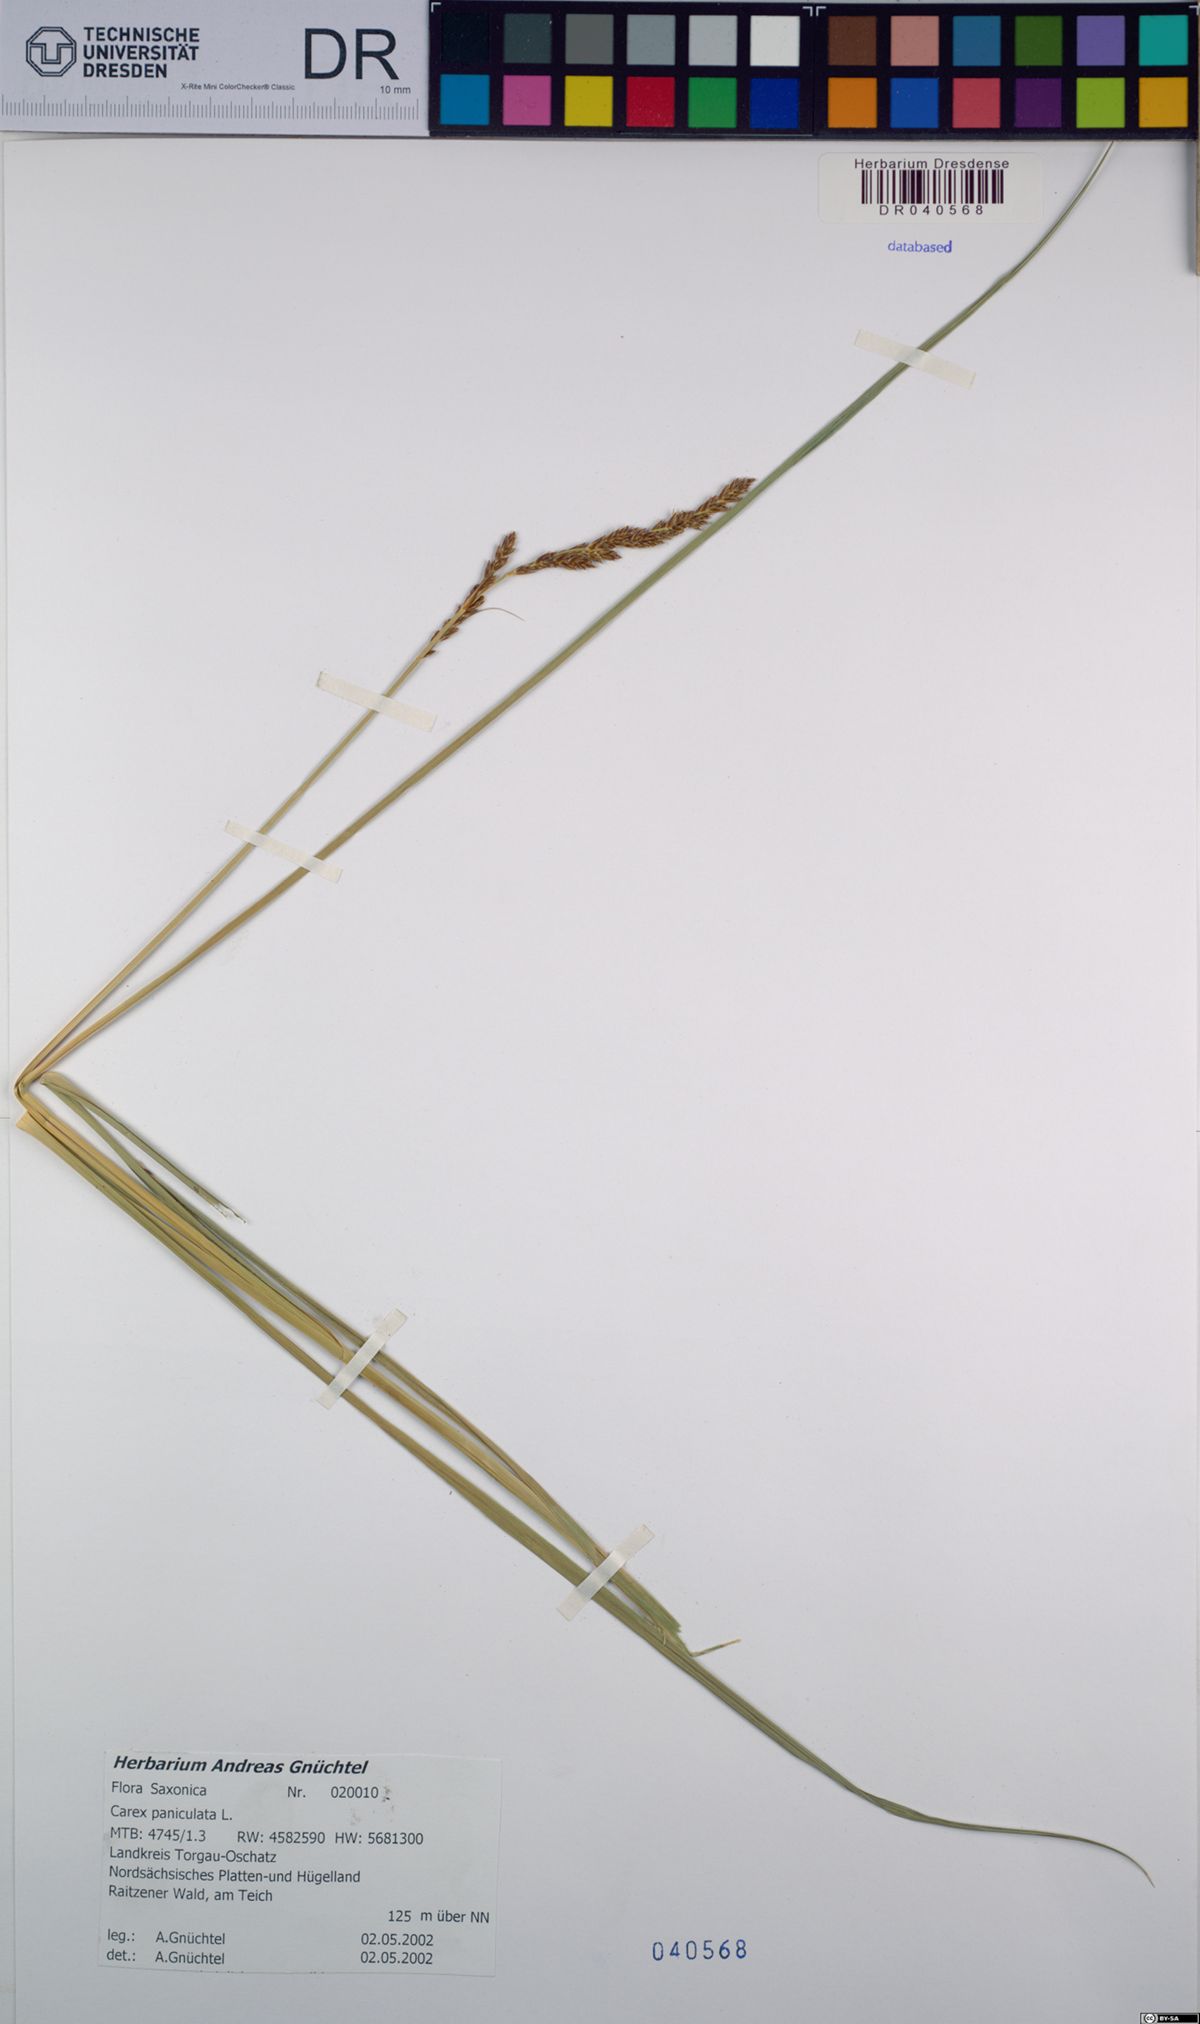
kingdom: Plantae
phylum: Tracheophyta
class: Liliopsida
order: Poales
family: Cyperaceae
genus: Carex
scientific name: Carex paniculata
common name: Greater tussock-sedge
